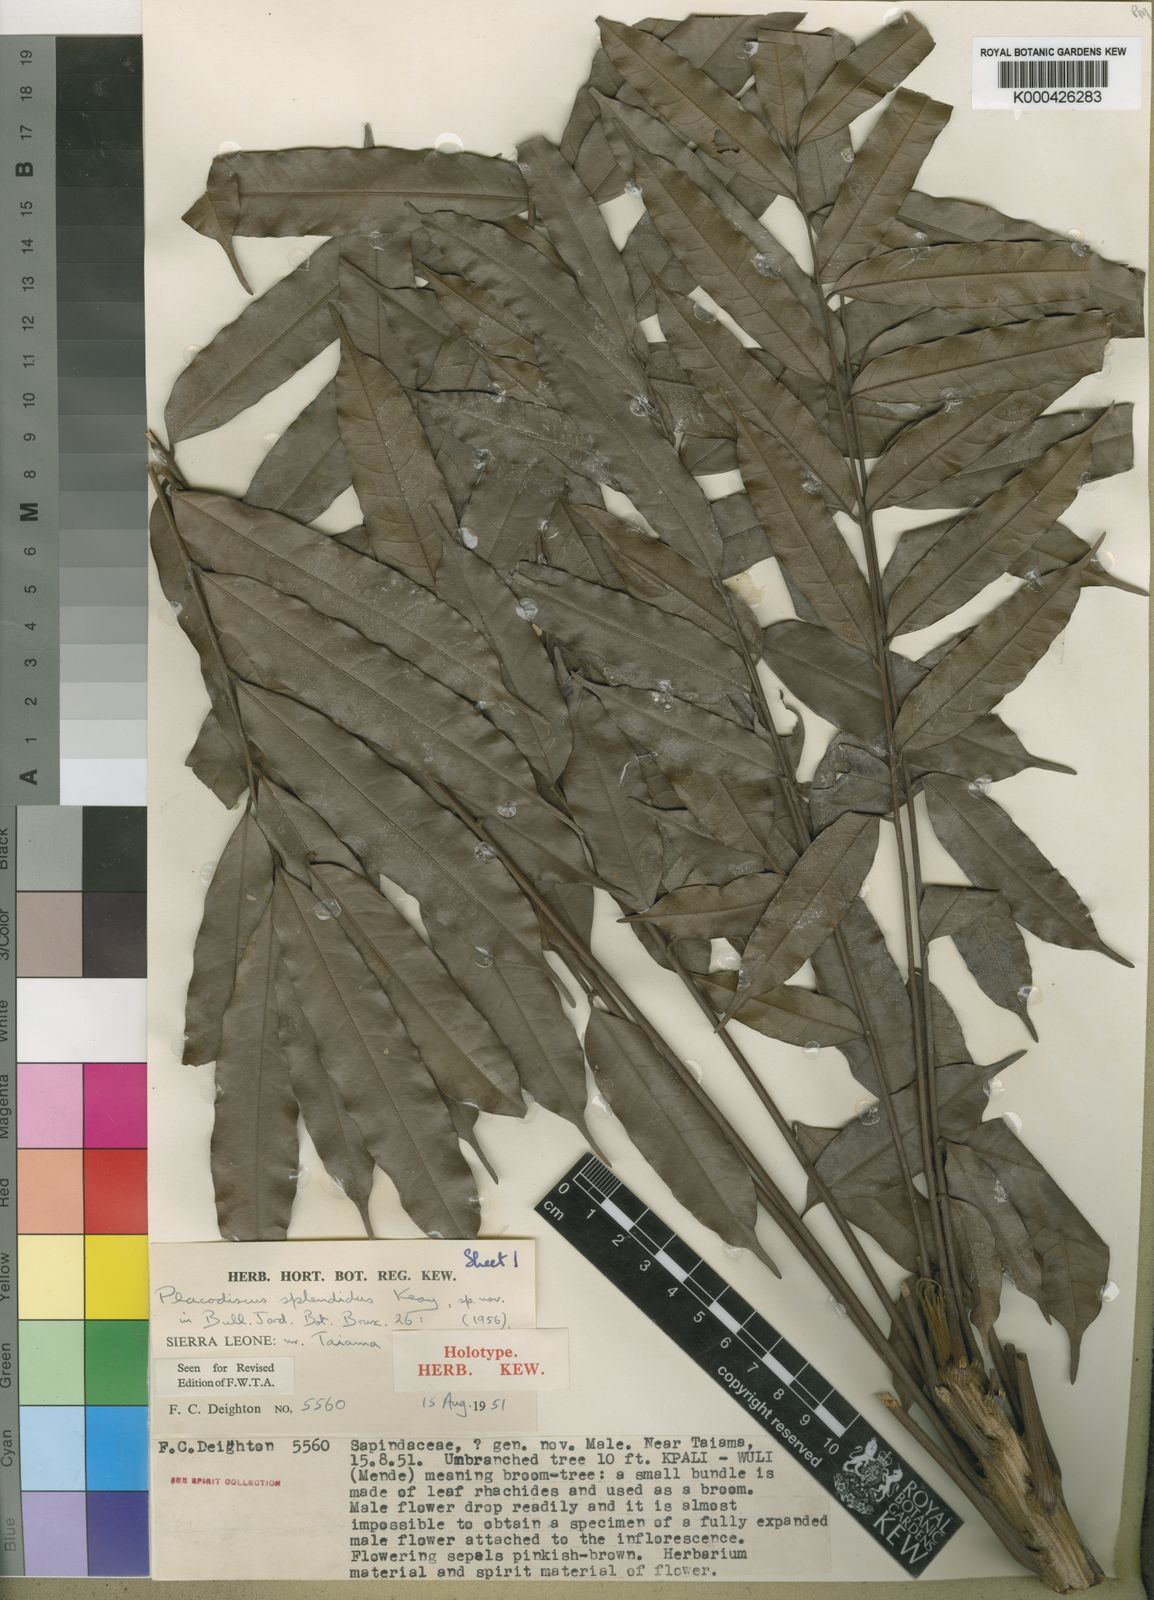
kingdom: Plantae
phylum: Tracheophyta
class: Magnoliopsida
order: Sapindales
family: Sapindaceae
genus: Placodiscus
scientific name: Placodiscus splendidus
